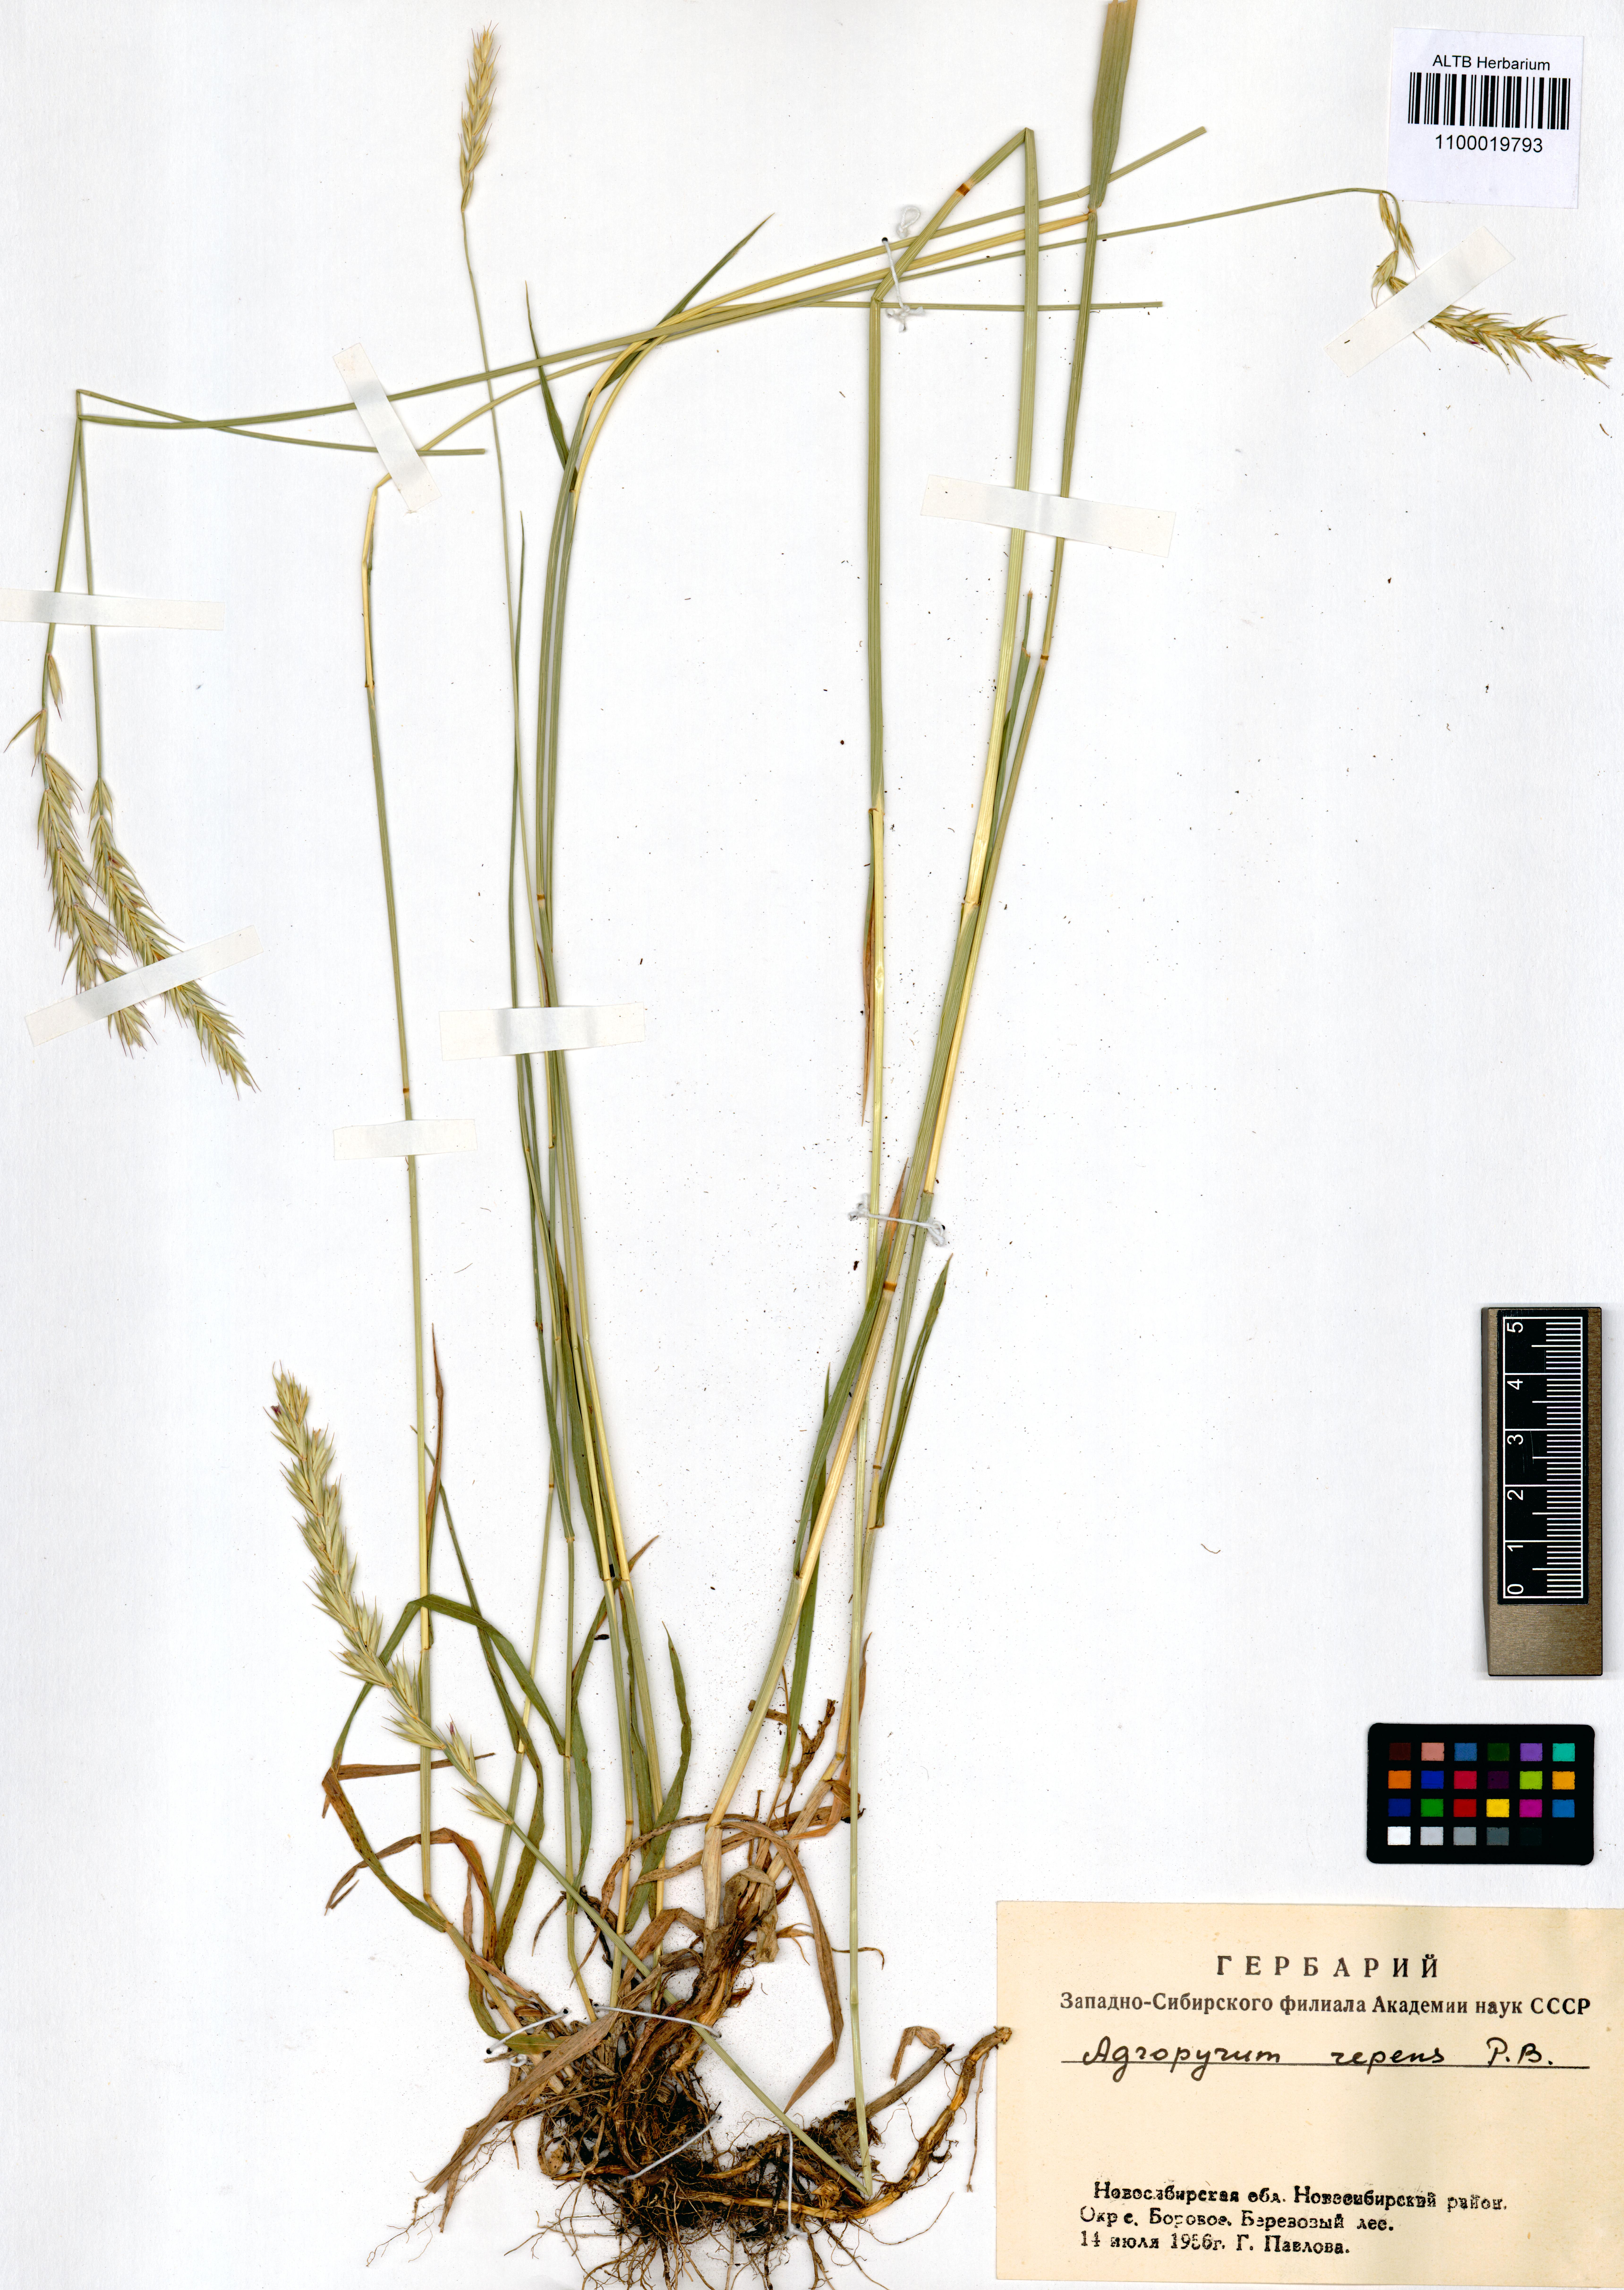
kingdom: Plantae
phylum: Tracheophyta
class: Liliopsida
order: Poales
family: Poaceae
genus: Elymus
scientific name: Elymus repens
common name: Quackgrass
